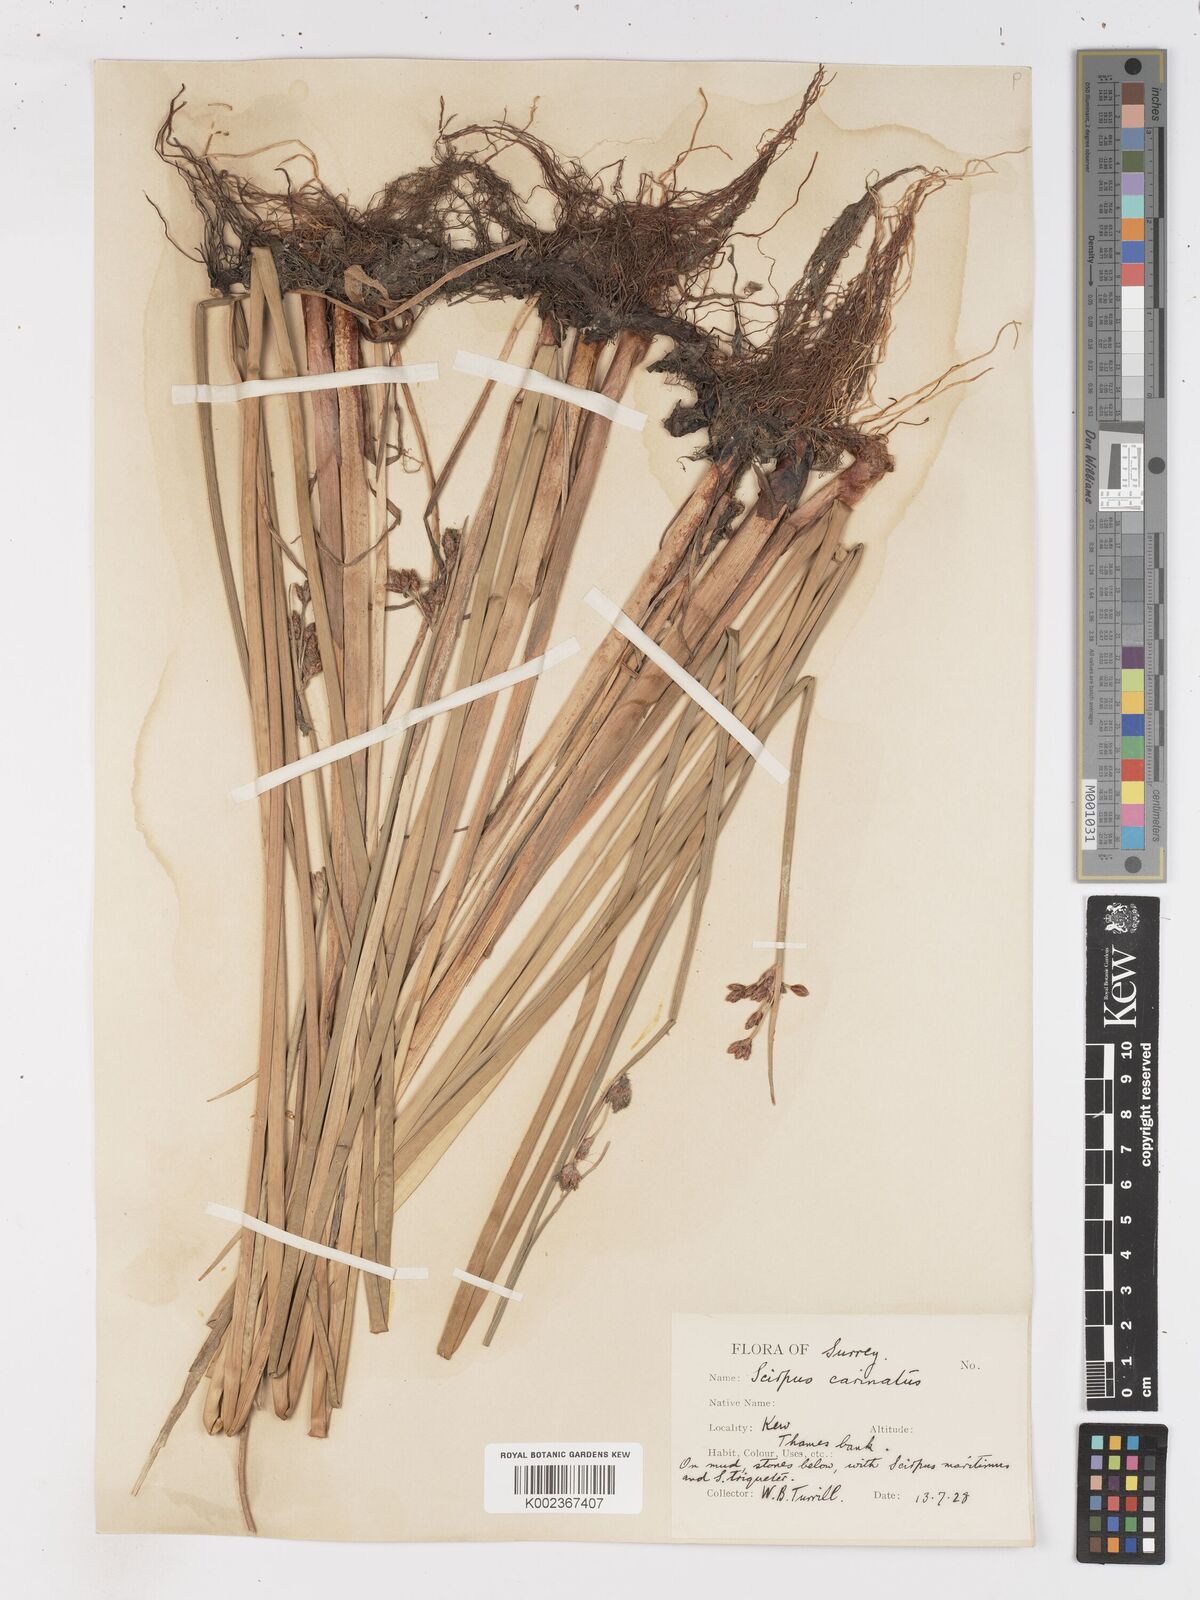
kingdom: Plantae
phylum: Tracheophyta
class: Liliopsida
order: Poales
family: Cyperaceae
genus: Isolepis
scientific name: Isolepis carinata
